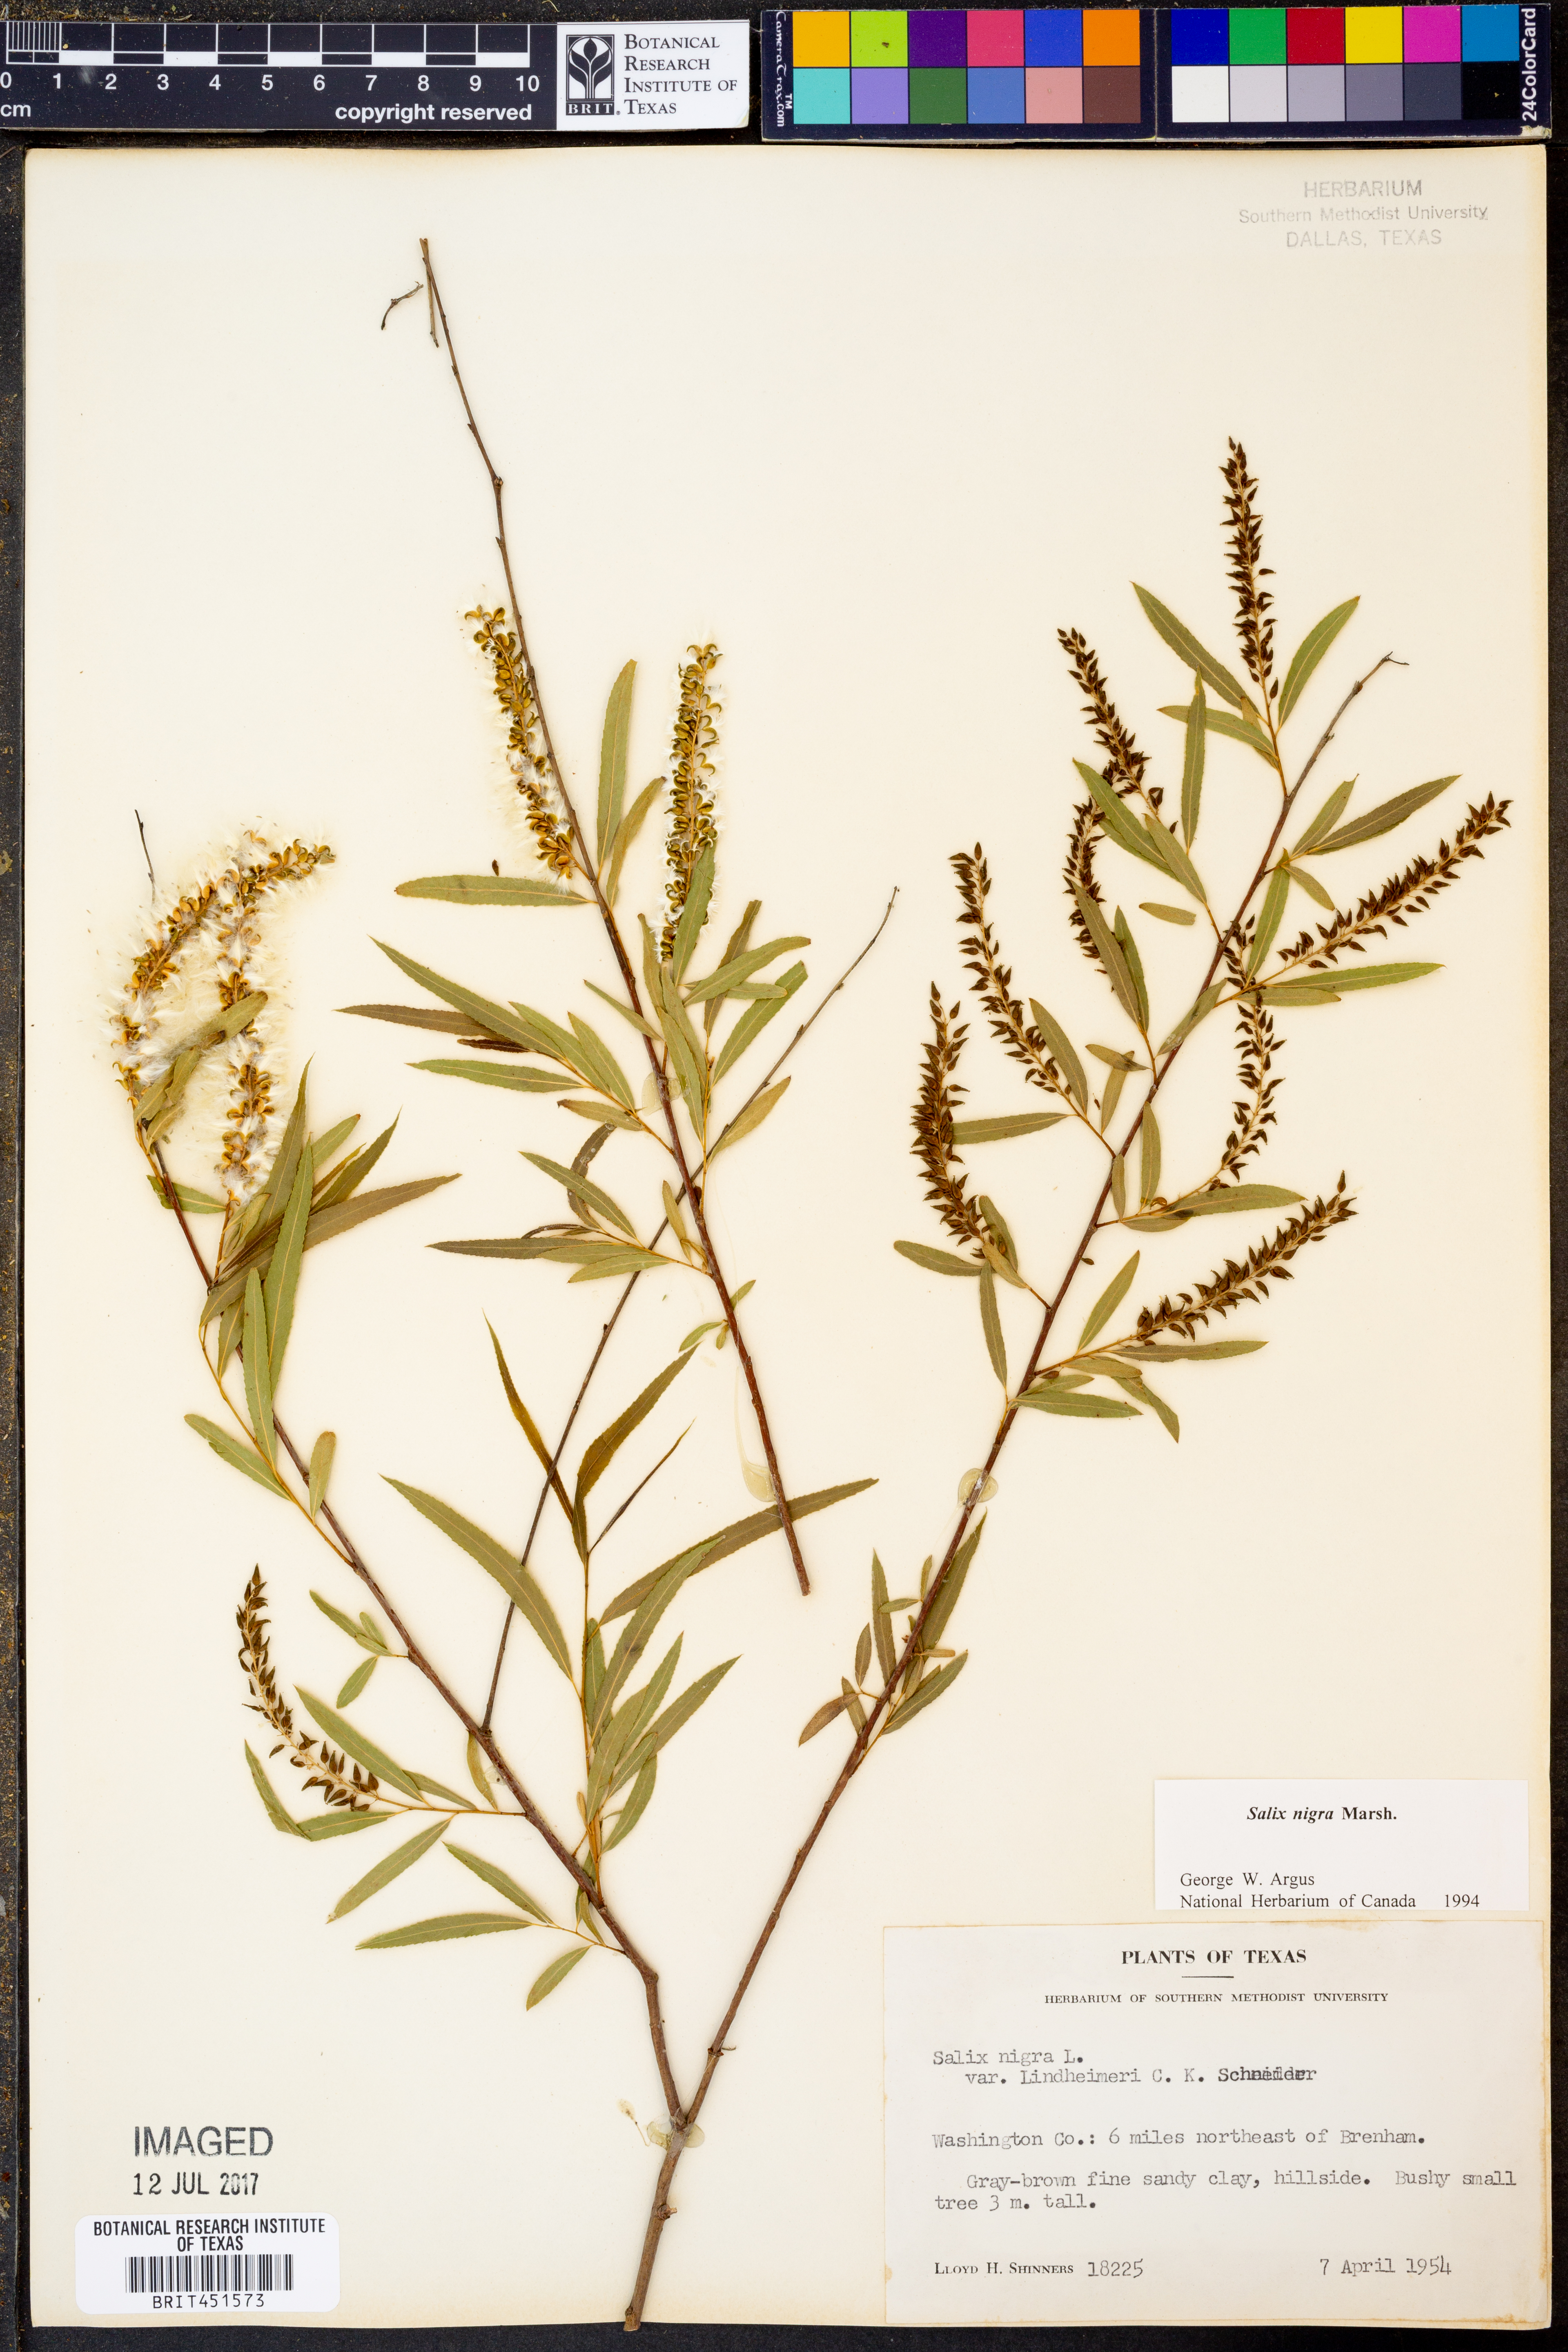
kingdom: Plantae
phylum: Tracheophyta
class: Magnoliopsida
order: Malpighiales
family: Salicaceae
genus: Salix
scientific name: Salix nigra
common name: Black willow
